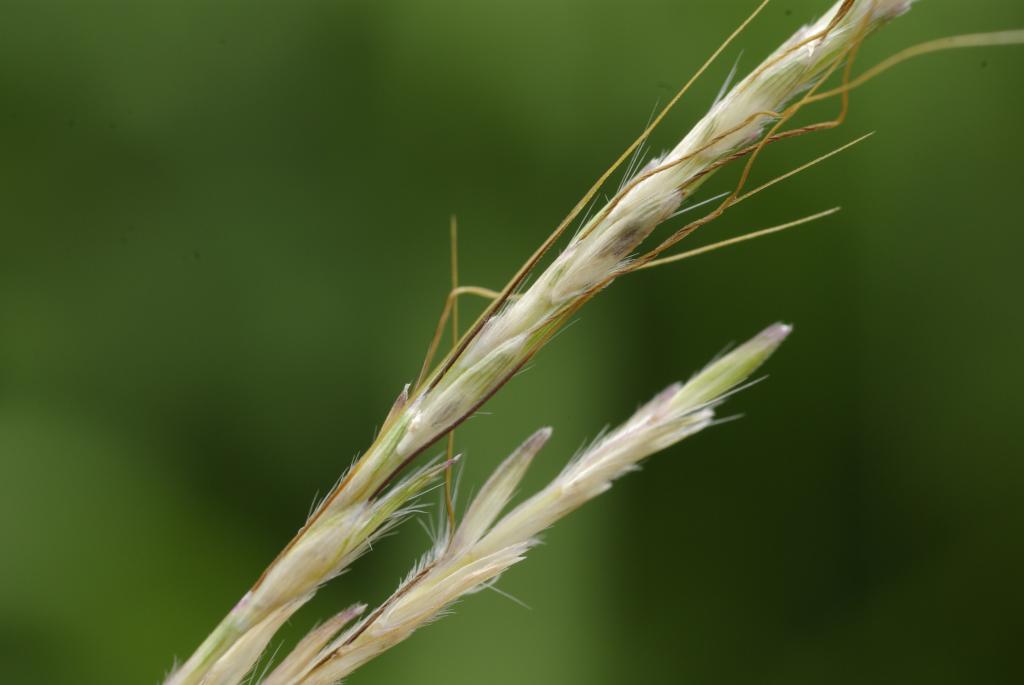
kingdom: Plantae
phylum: Tracheophyta
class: Liliopsida
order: Poales
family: Poaceae
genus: Bothriochloa
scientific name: Bothriochloa ischaemum
